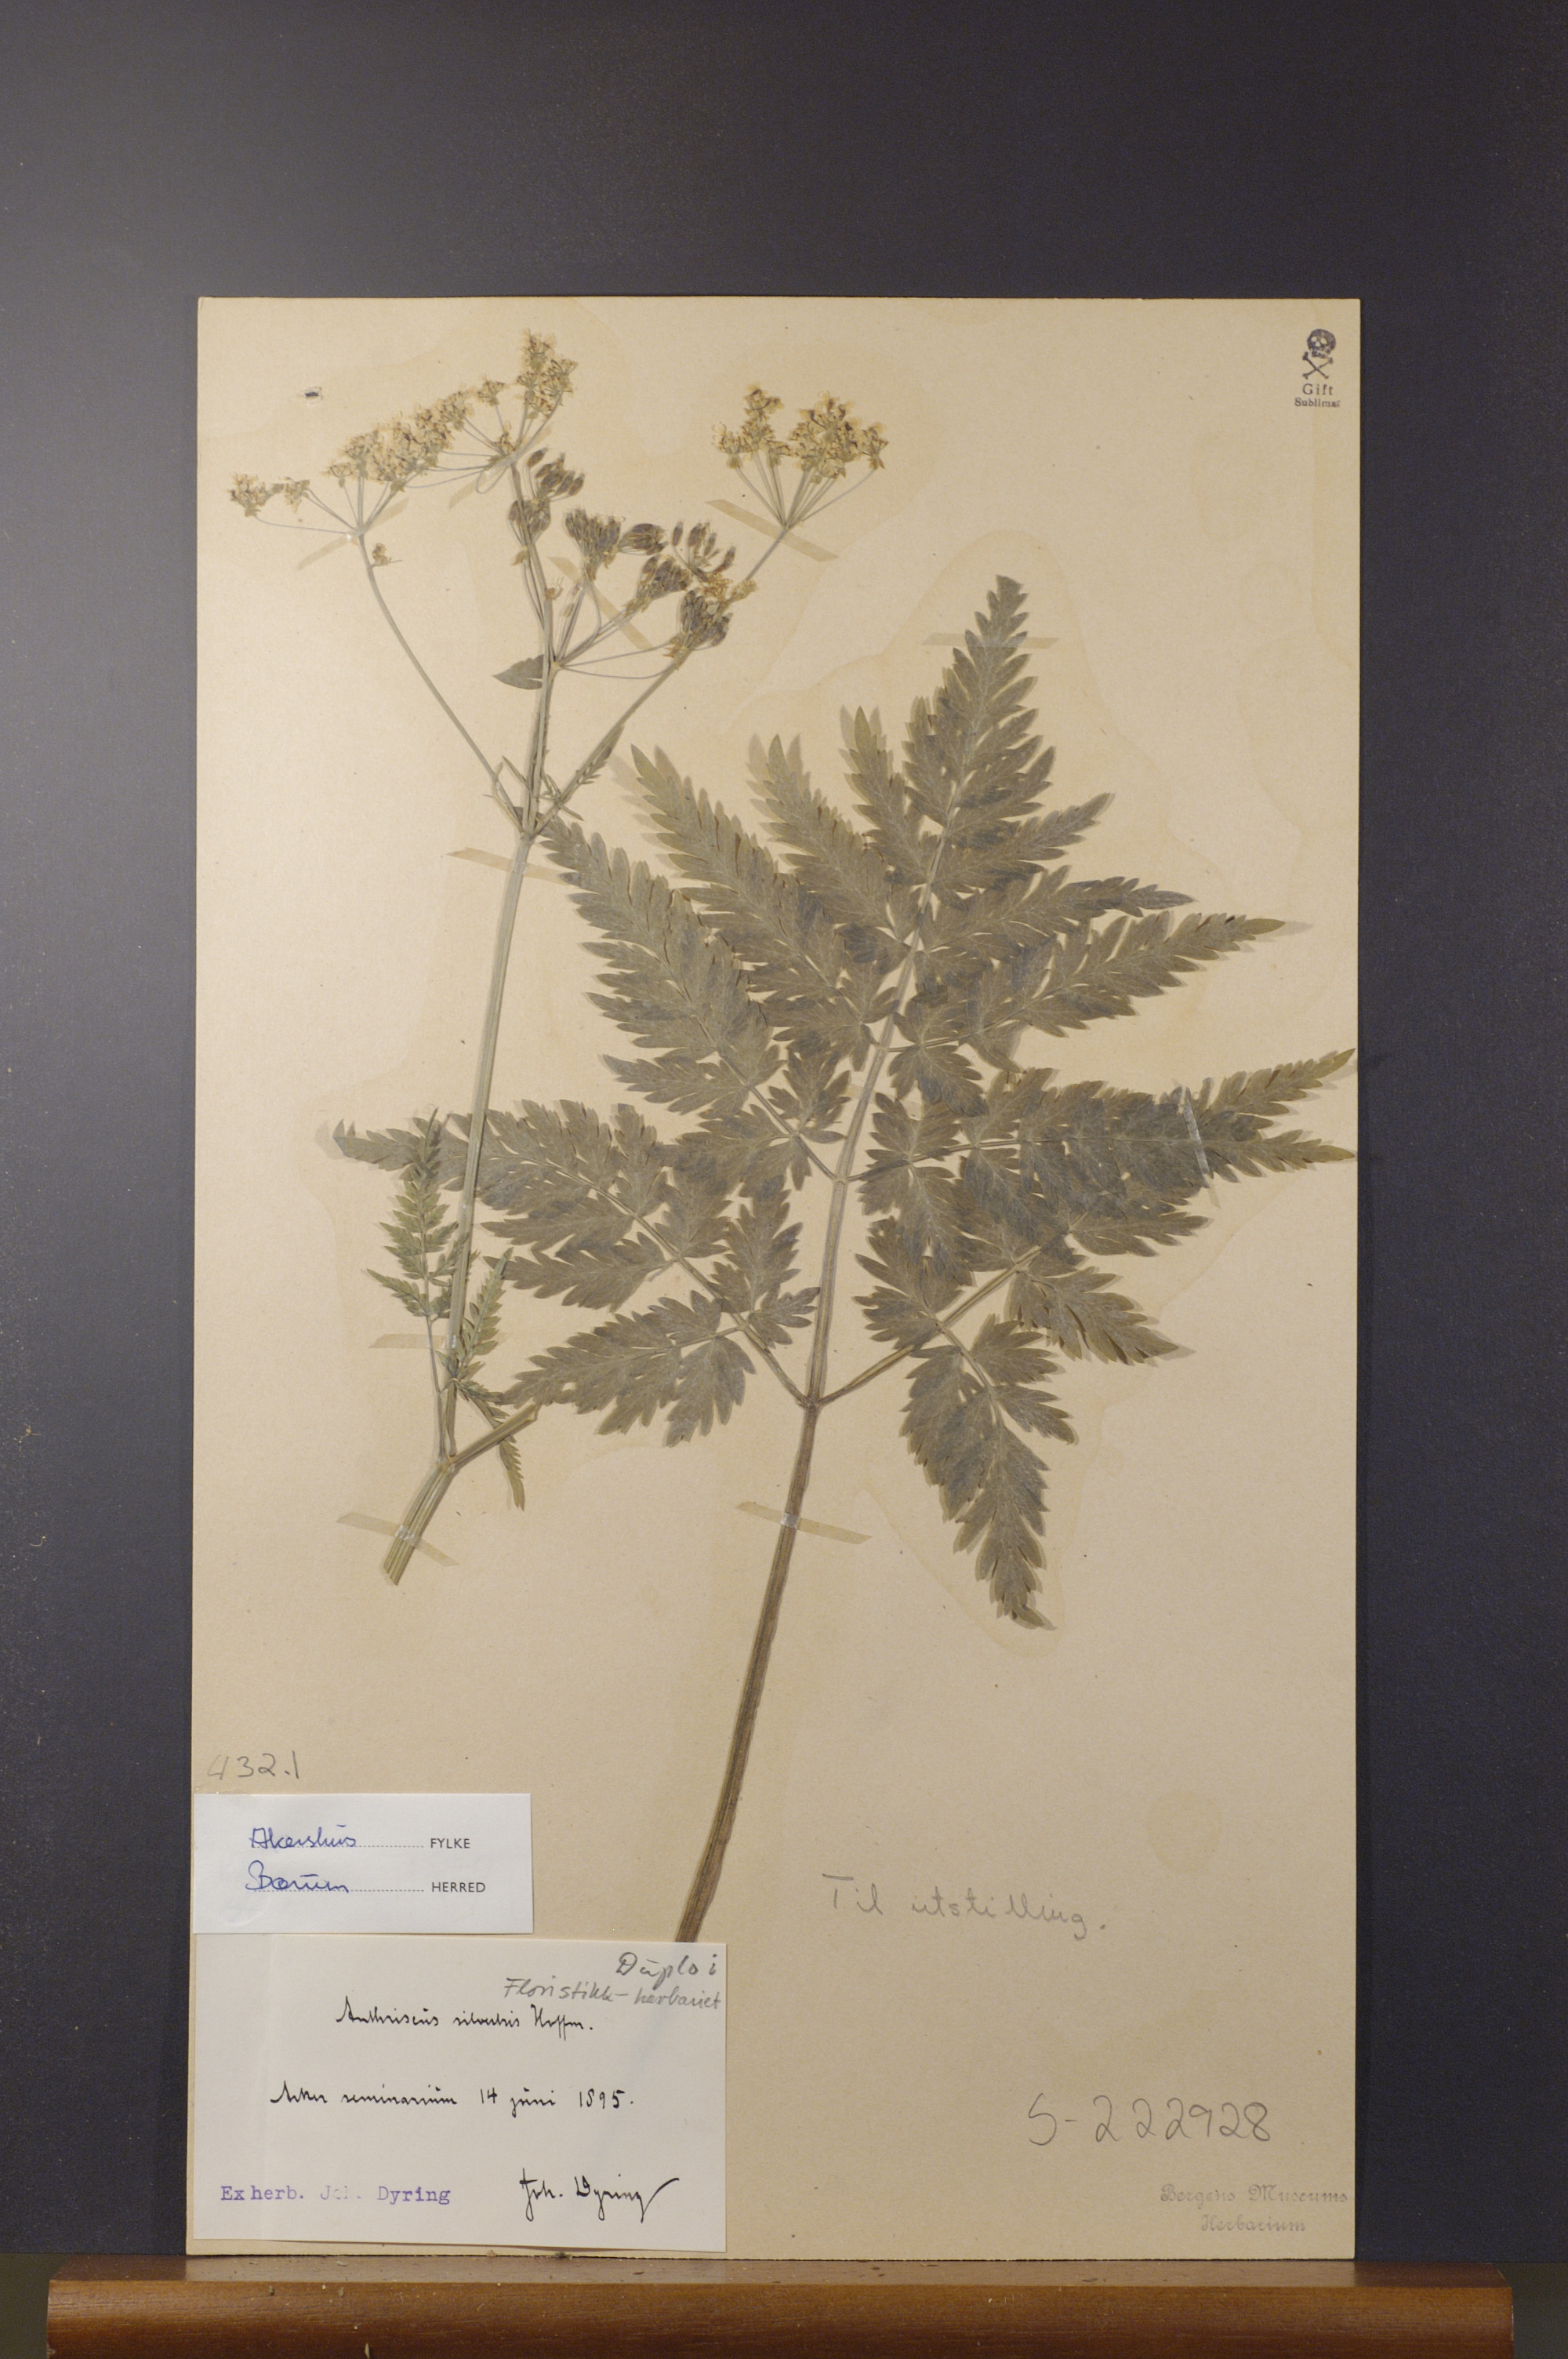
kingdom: Plantae
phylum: Tracheophyta
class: Magnoliopsida
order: Apiales
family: Apiaceae
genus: Anthriscus
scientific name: Anthriscus sylvestris
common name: Cow parsley
